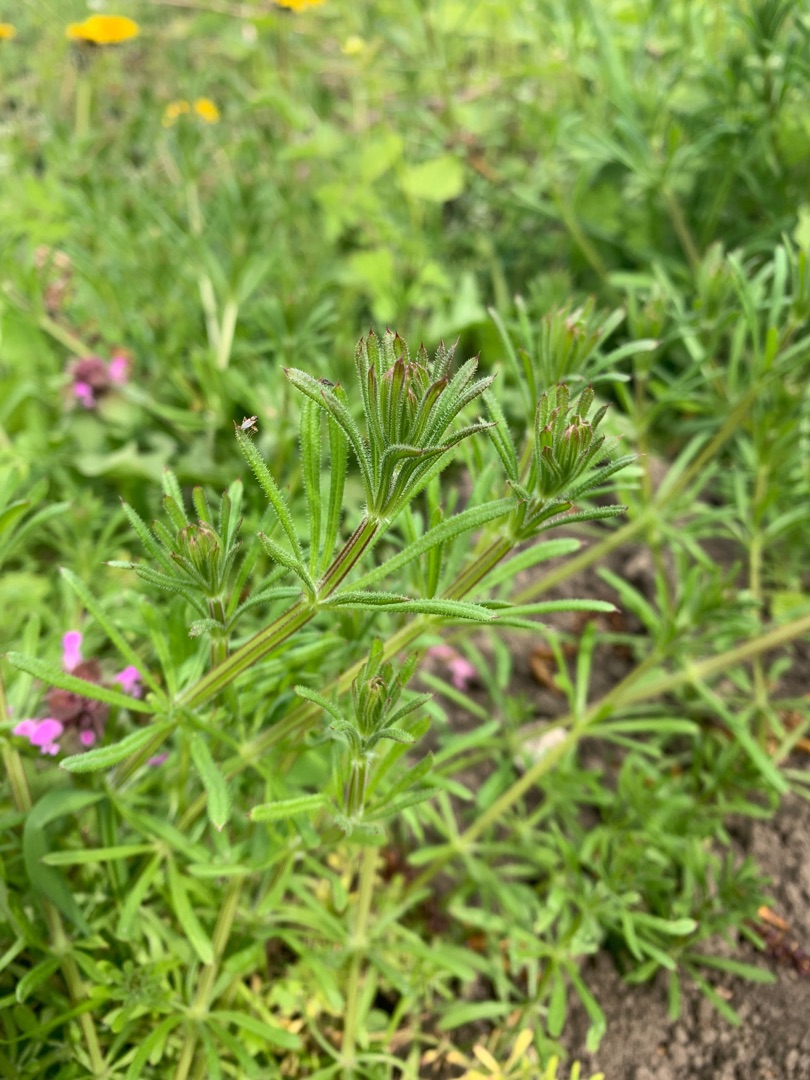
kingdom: Plantae
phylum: Tracheophyta
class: Magnoliopsida
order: Gentianales
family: Rubiaceae
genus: Galium
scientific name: Galium aparine
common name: Burre-snerre
